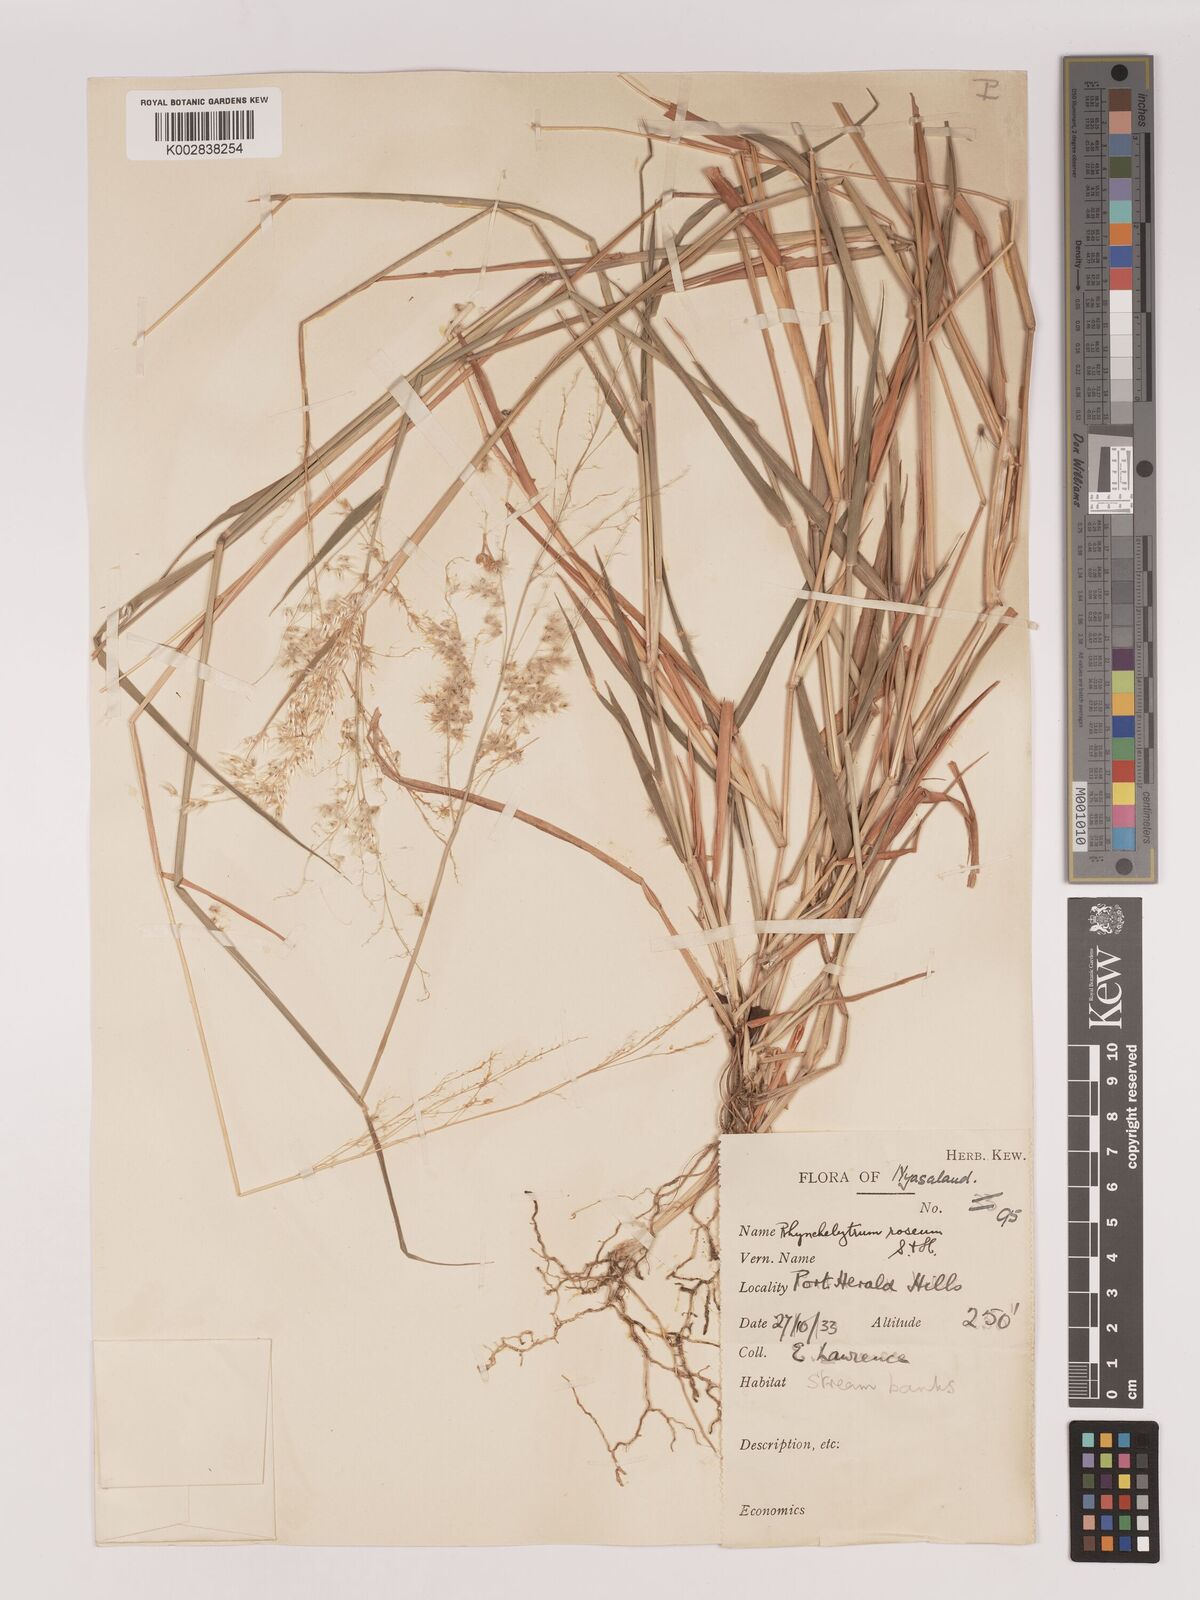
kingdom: Plantae
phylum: Tracheophyta
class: Liliopsida
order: Poales
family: Poaceae
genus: Melinis
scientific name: Melinis repens
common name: Rose natal grass
